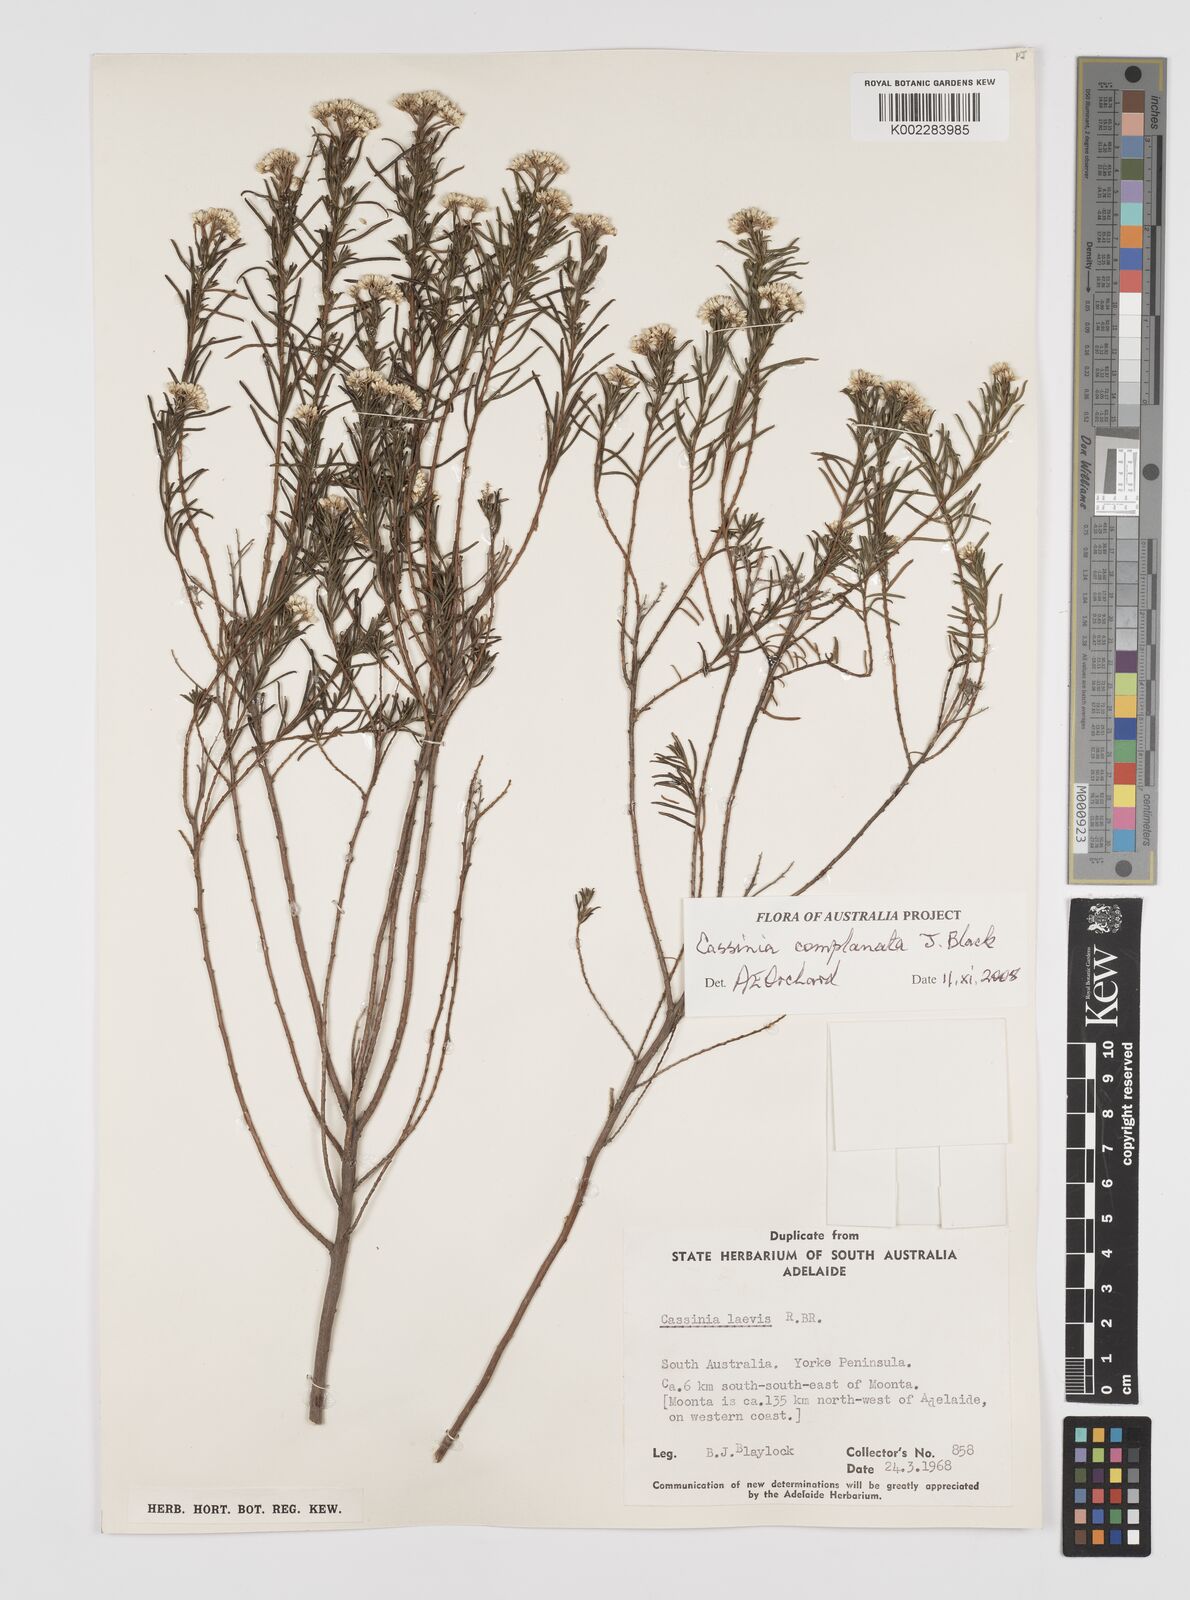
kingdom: Plantae
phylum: Tracheophyta
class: Magnoliopsida
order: Asterales
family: Asteraceae
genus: Cassinia
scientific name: Cassinia complanata
